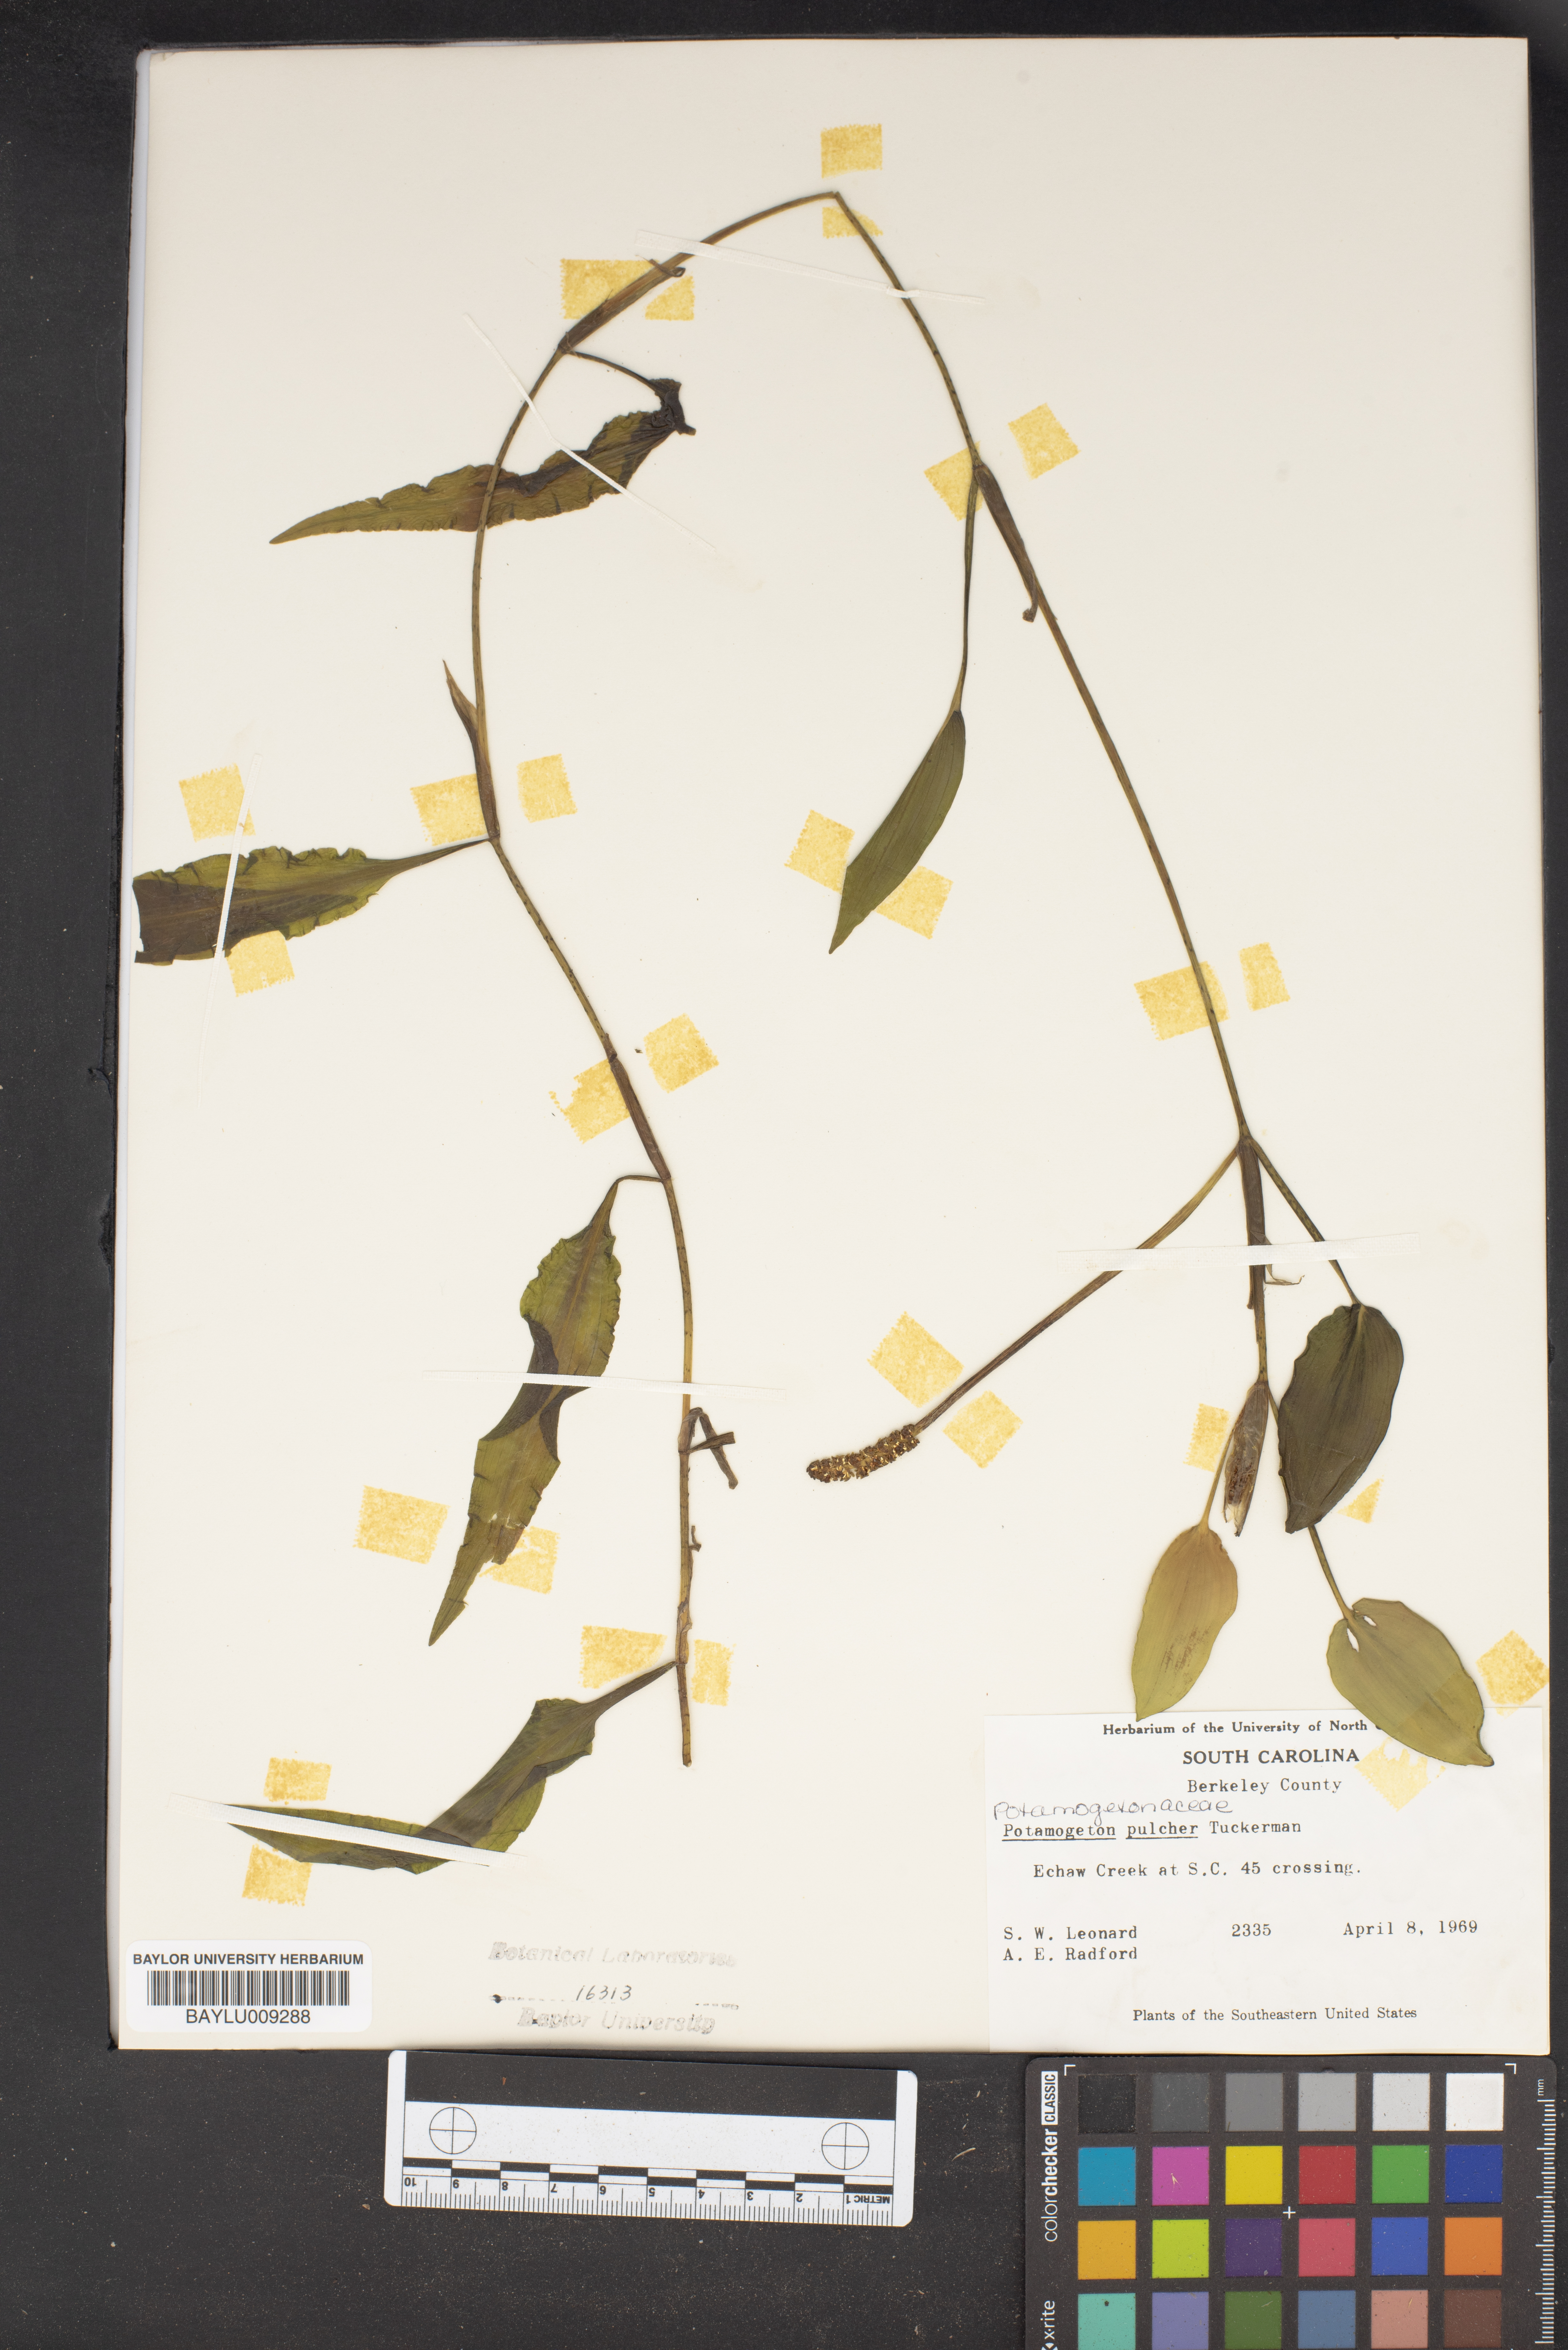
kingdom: Plantae
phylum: Tracheophyta
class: Liliopsida
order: Alismatales
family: Potamogetonaceae
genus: Potamogeton
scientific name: Potamogeton pulcher
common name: Heart-leaved pondweed
